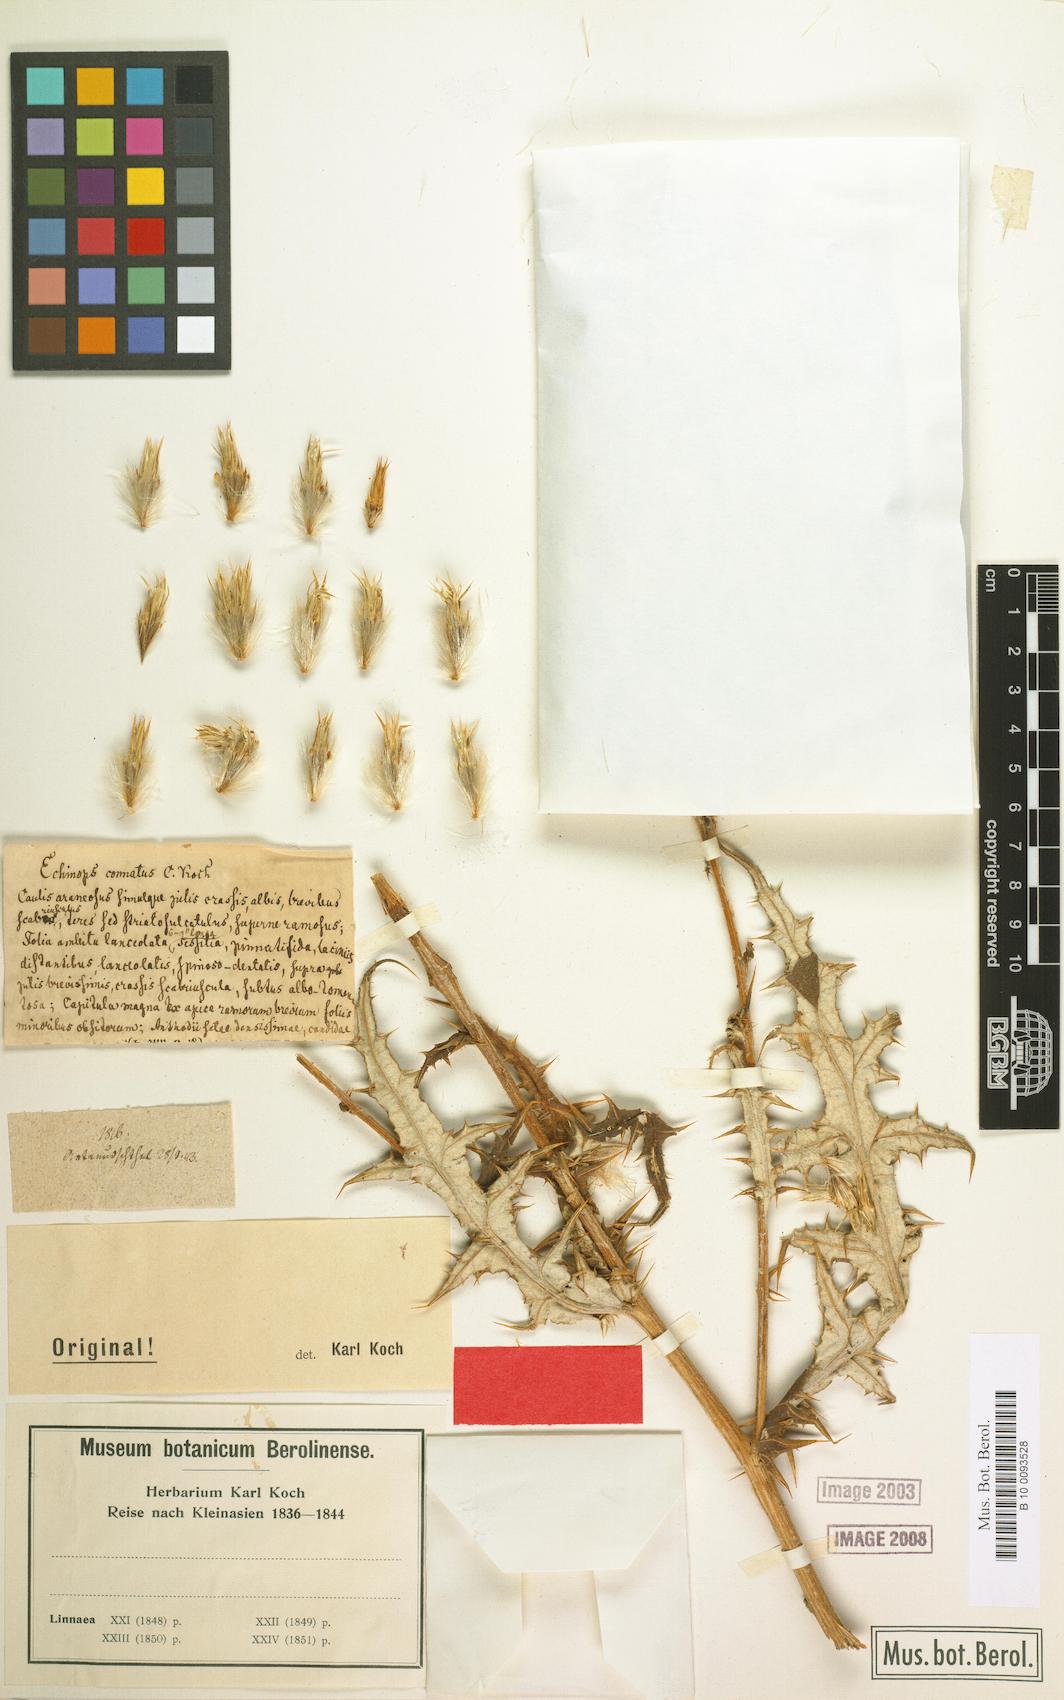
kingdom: Plantae
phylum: Tracheophyta
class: Magnoliopsida
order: Asterales
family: Asteraceae
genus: Echinops
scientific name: Echinops spinosissimus
